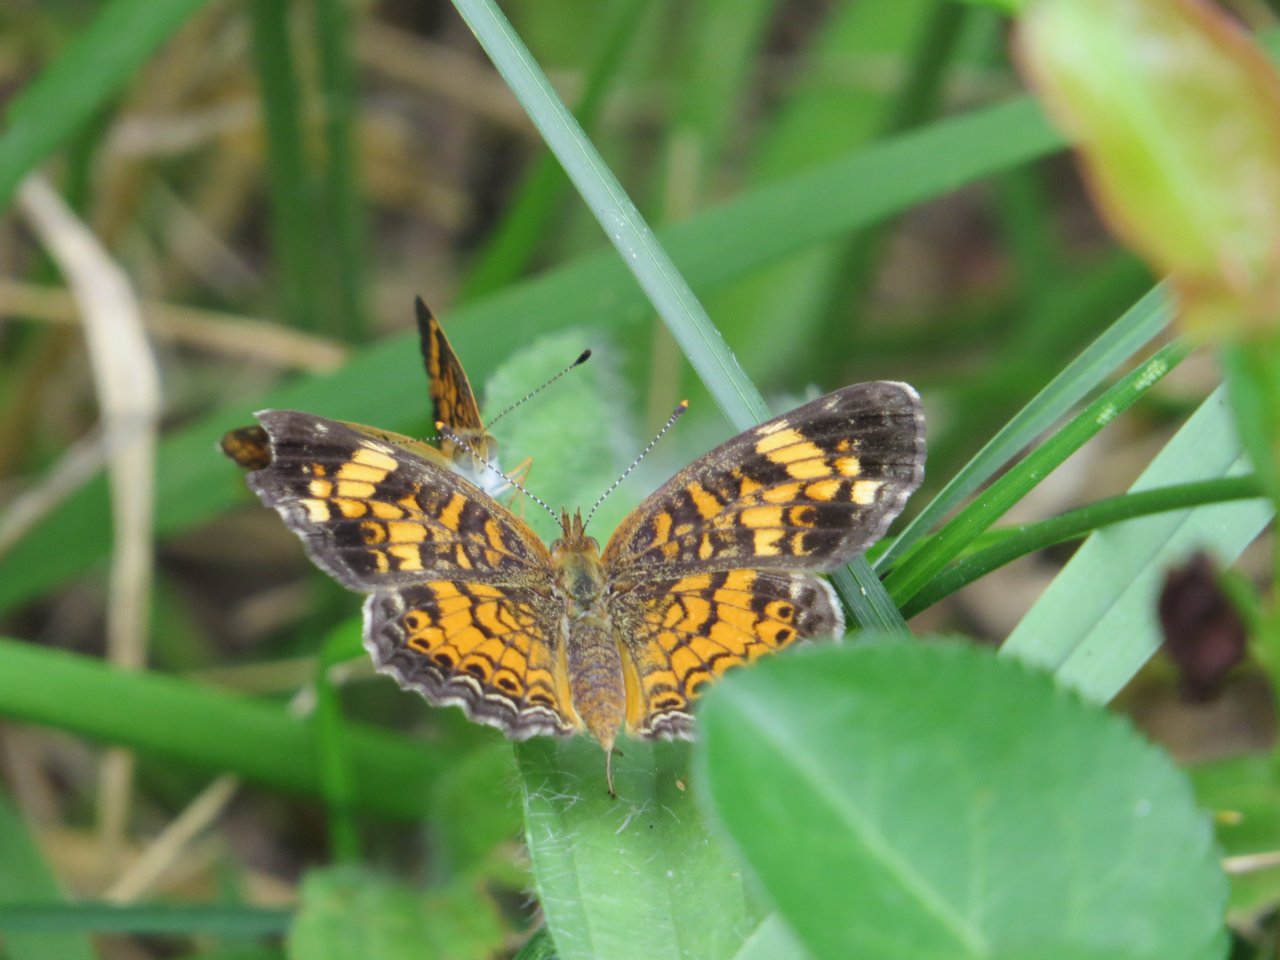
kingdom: Animalia
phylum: Arthropoda
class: Insecta
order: Lepidoptera
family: Nymphalidae
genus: Phyciodes
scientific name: Phyciodes tharos
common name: Pearl Crescent
